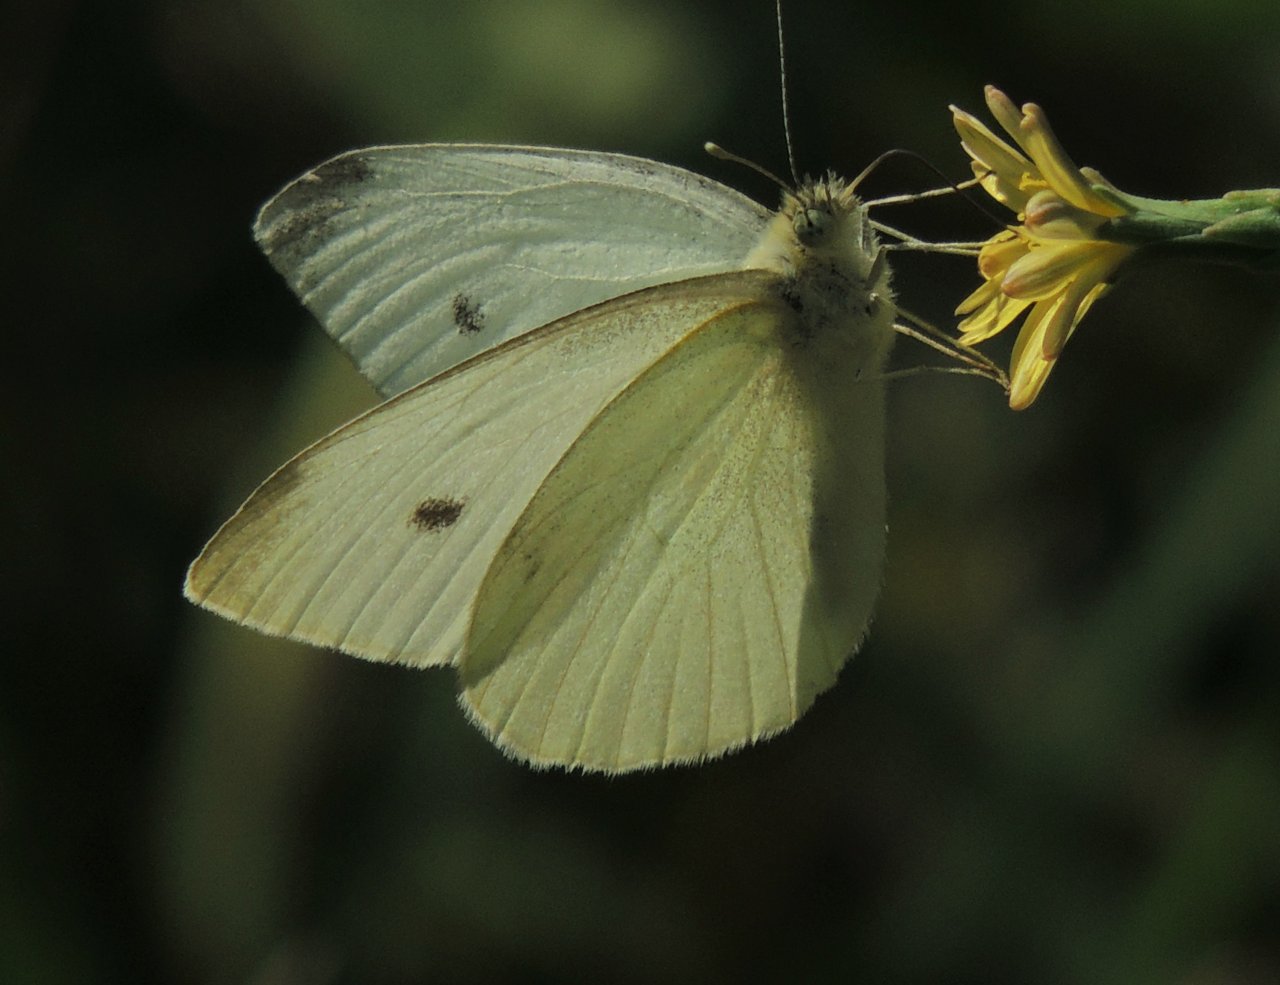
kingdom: Animalia
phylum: Arthropoda
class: Insecta
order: Lepidoptera
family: Pieridae
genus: Pieris
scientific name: Pieris rapae
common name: Cabbage White
